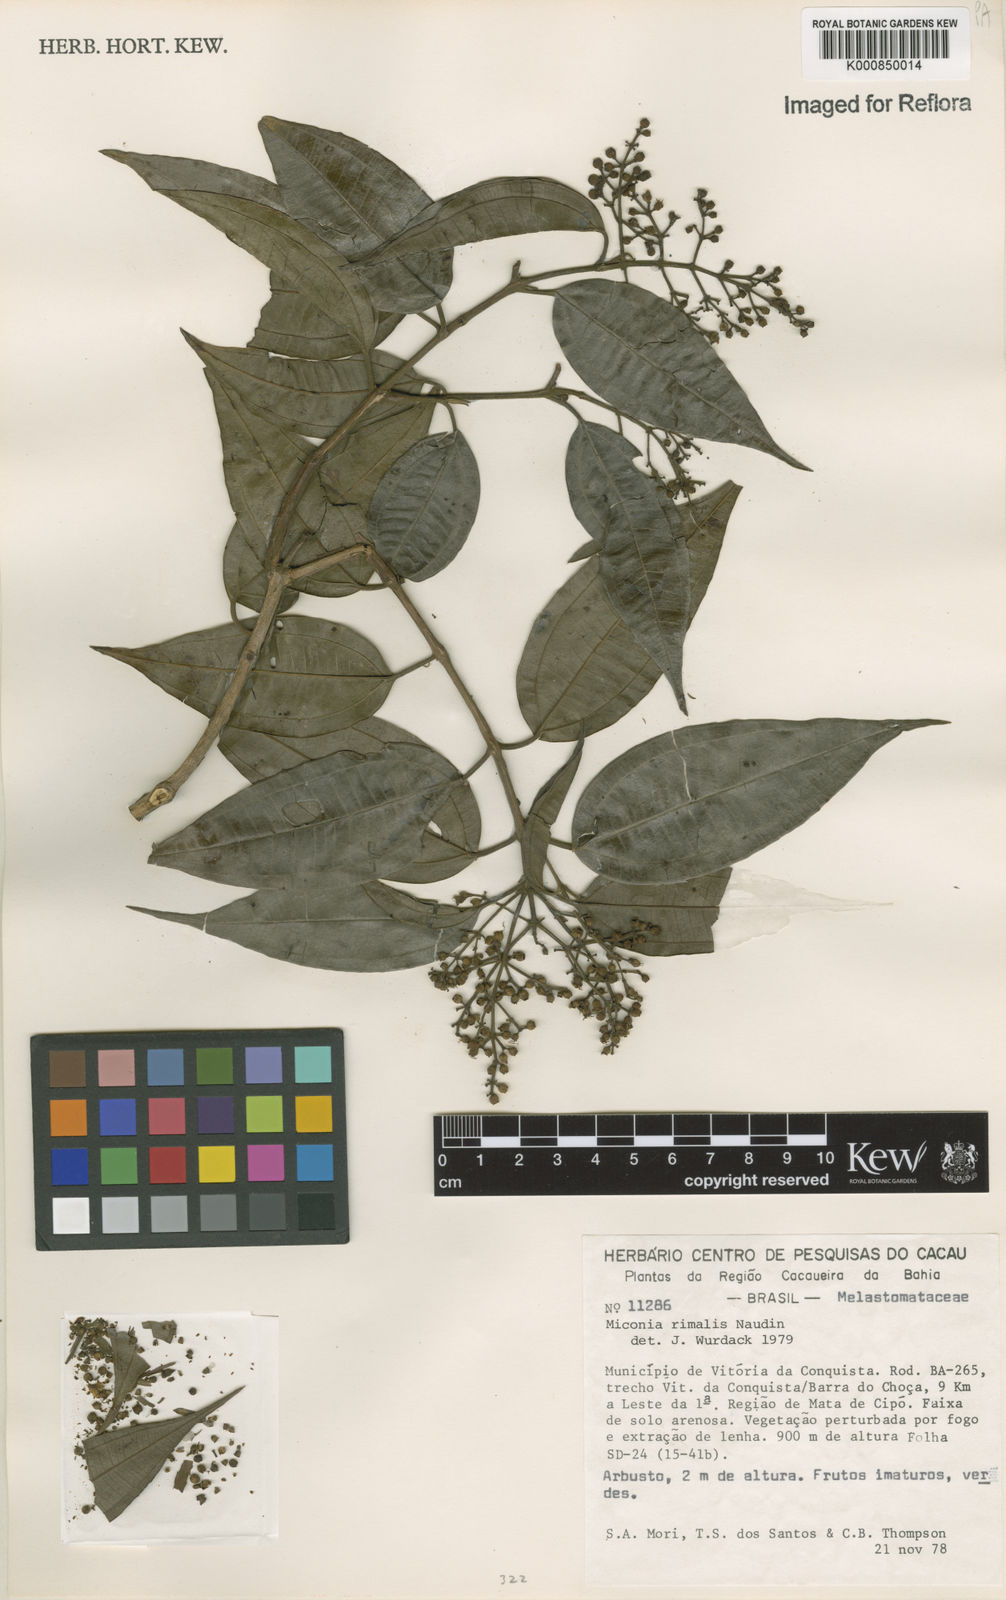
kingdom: Plantae
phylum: Tracheophyta
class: Magnoliopsida
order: Myrtales
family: Melastomataceae
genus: Miconia
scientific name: Miconia
